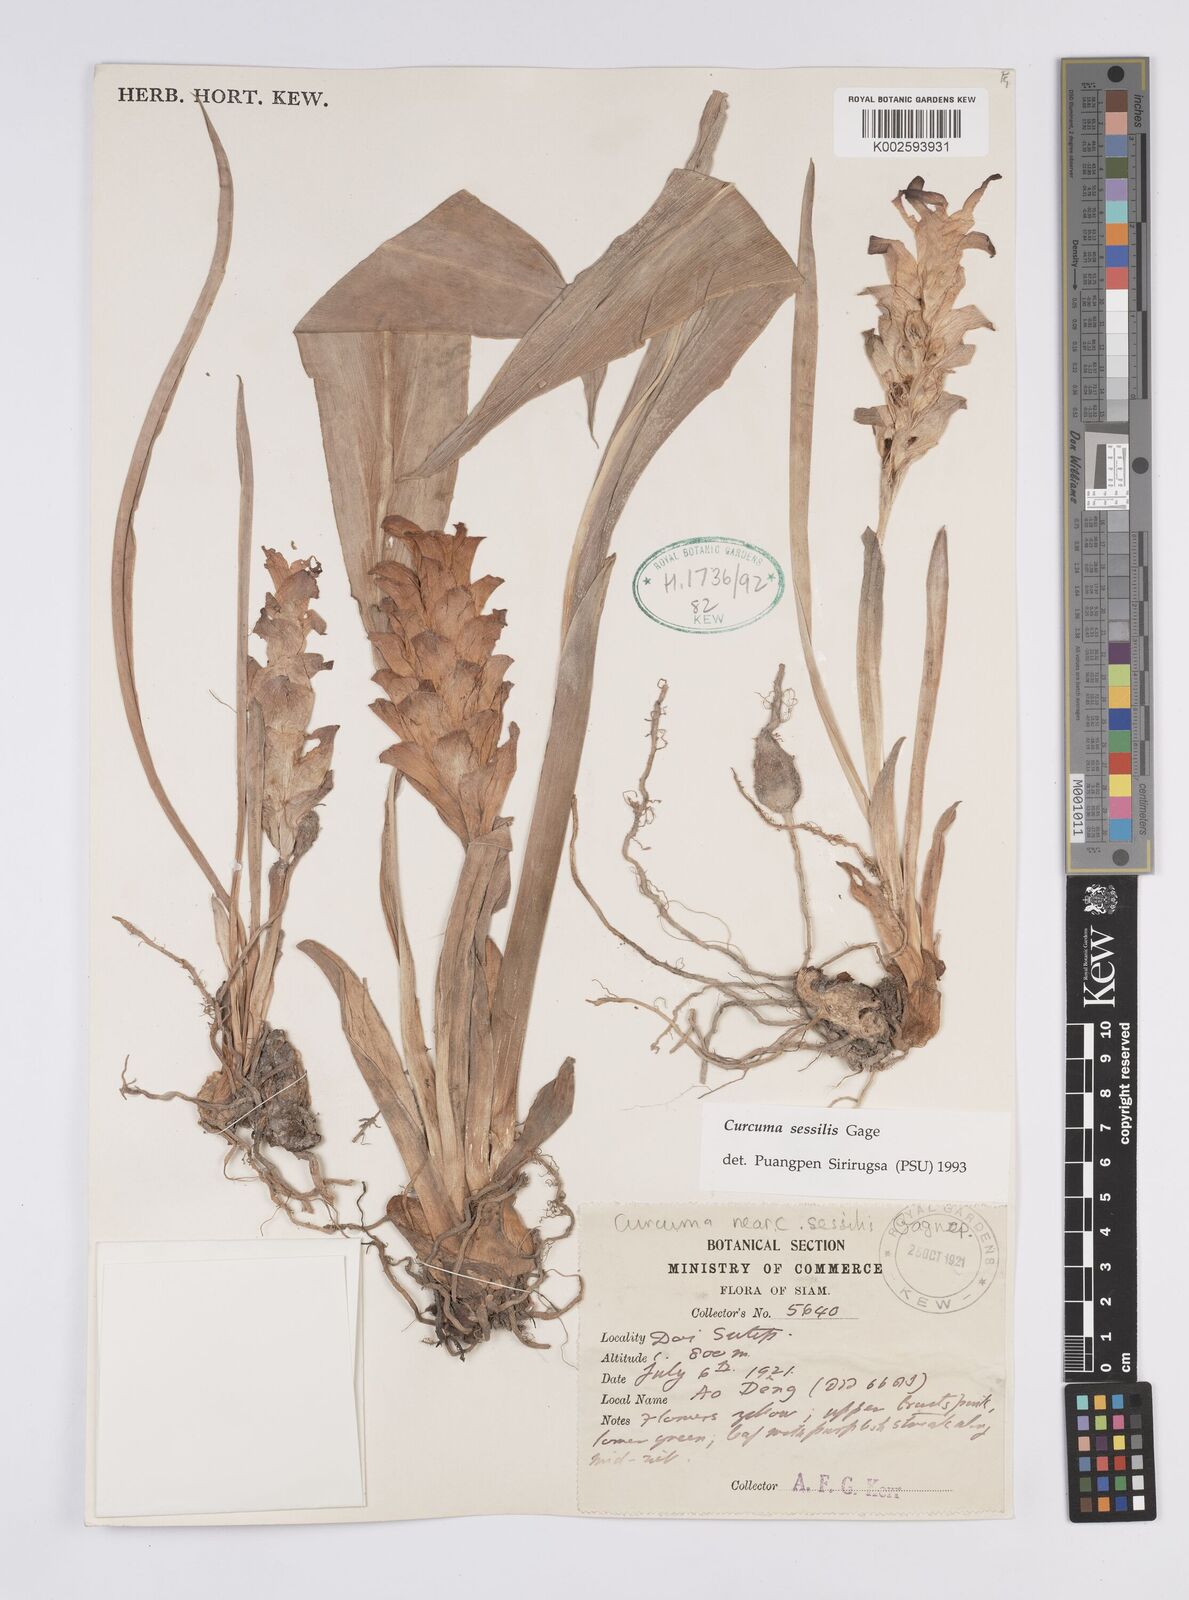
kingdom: Plantae
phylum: Tracheophyta
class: Liliopsida
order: Zingiberales
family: Zingiberaceae
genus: Curcuma
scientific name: Curcuma sessilis
